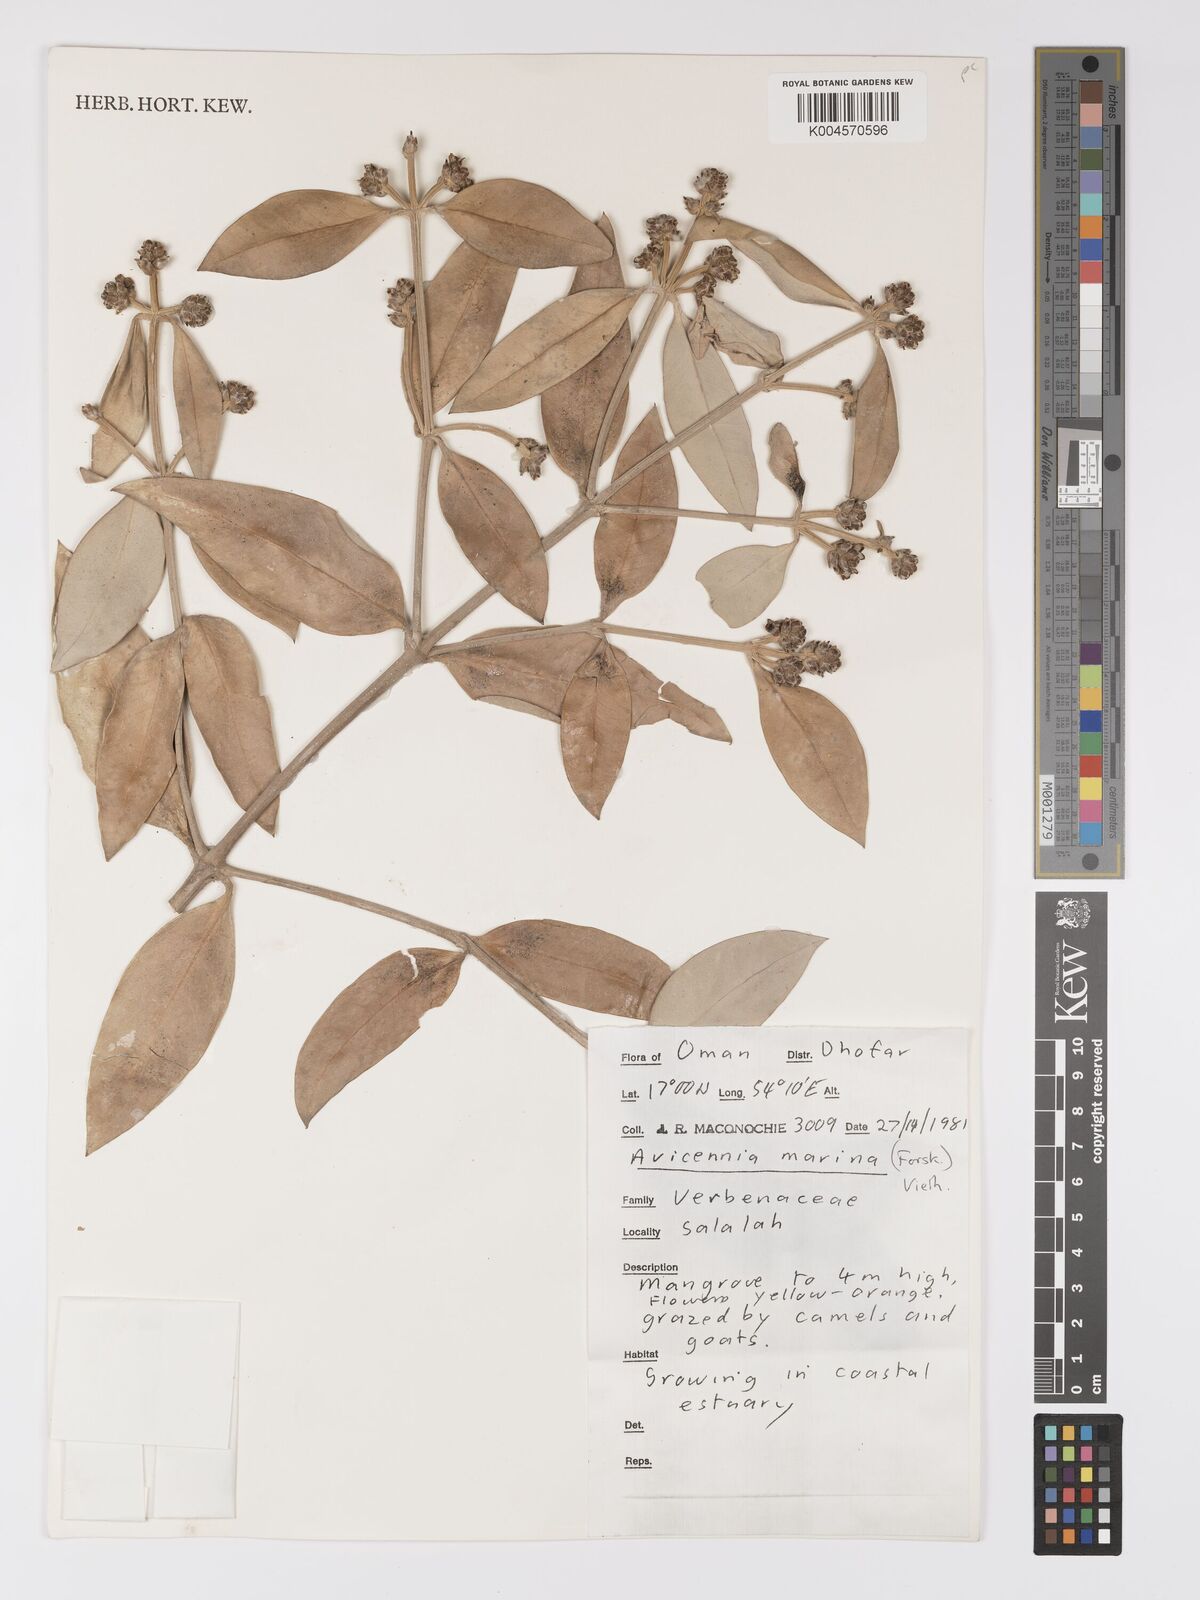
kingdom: Plantae
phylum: Tracheophyta
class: Magnoliopsida
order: Lamiales
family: Acanthaceae
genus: Avicennia
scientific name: Avicennia
